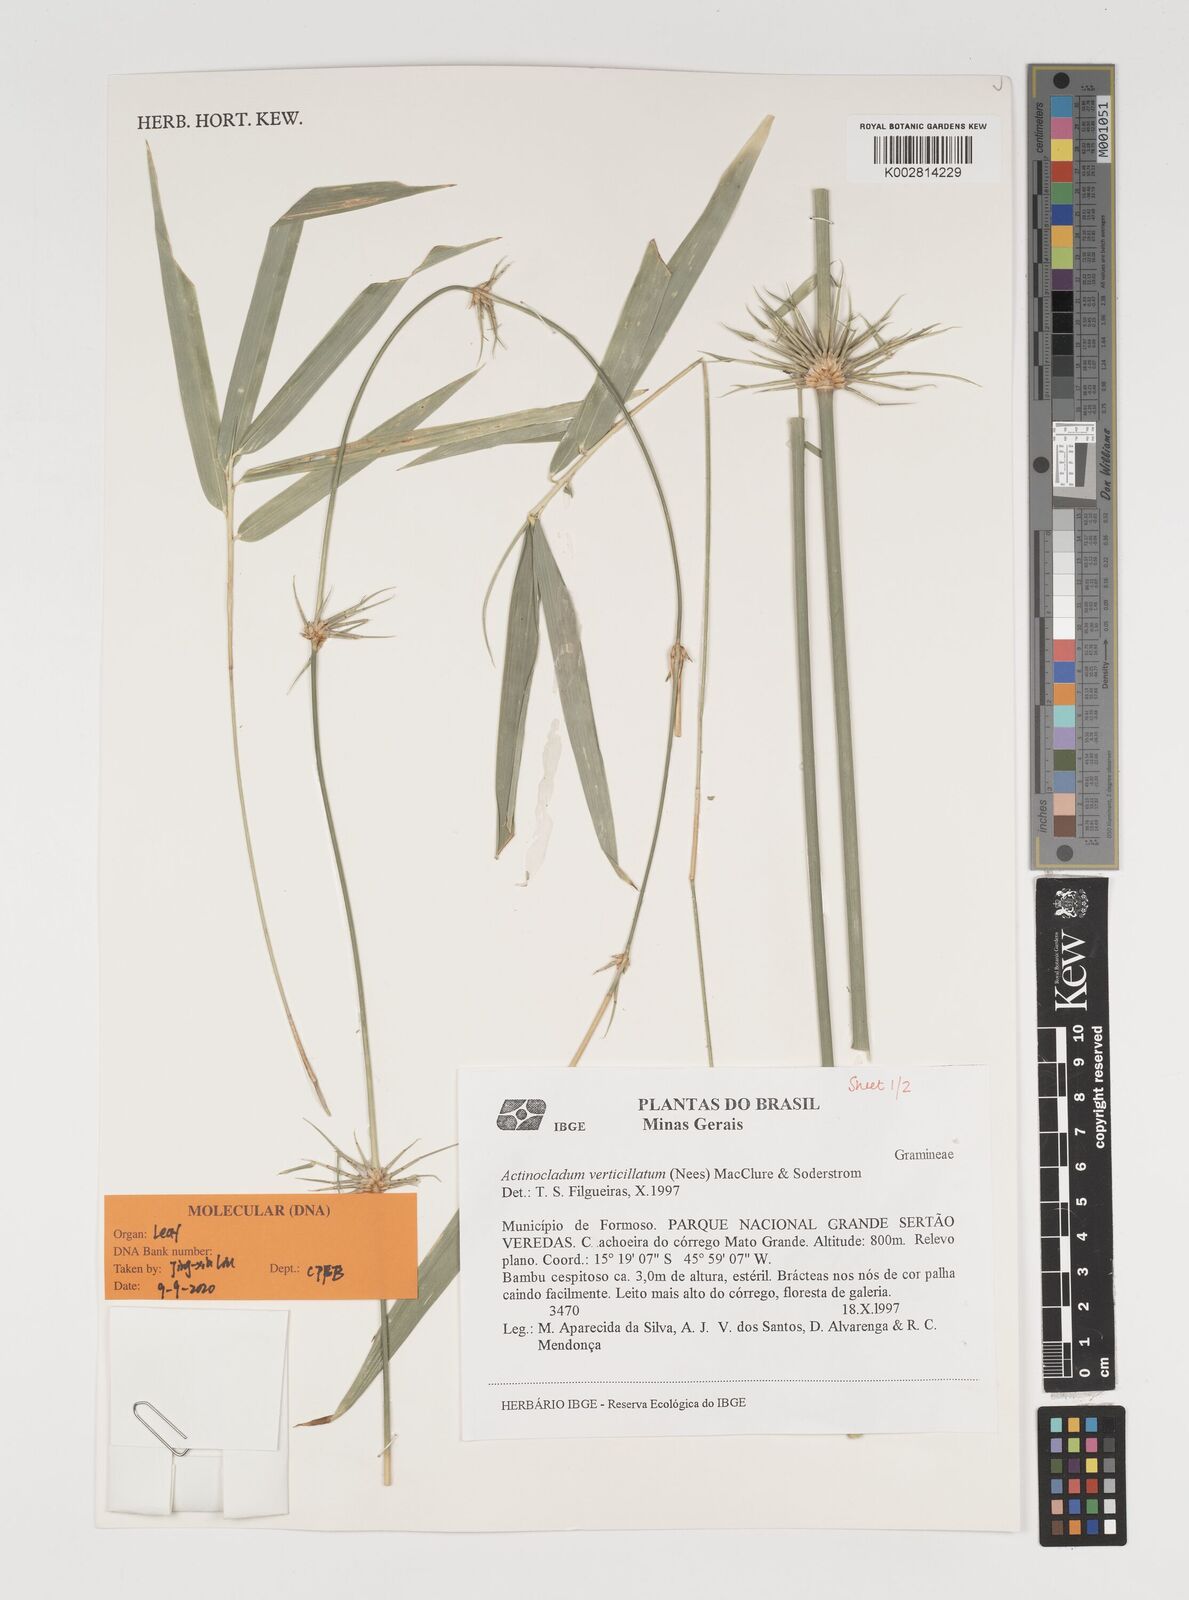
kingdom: Plantae
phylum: Tracheophyta
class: Liliopsida
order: Poales
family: Poaceae
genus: Actinocladum
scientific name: Actinocladum verticillatum
